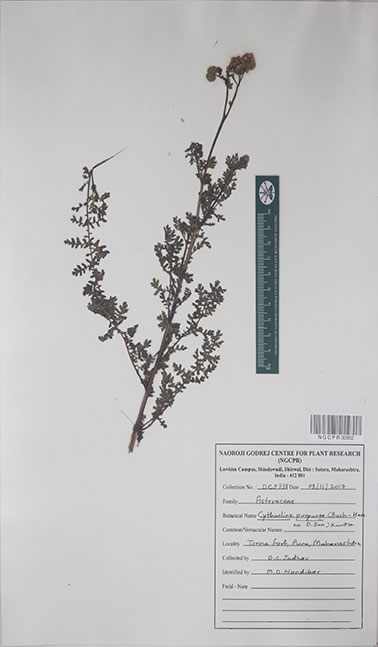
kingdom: Plantae
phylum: Tracheophyta
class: Magnoliopsida
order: Asterales
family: Asteraceae
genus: Cyathocline
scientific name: Cyathocline purpurea
